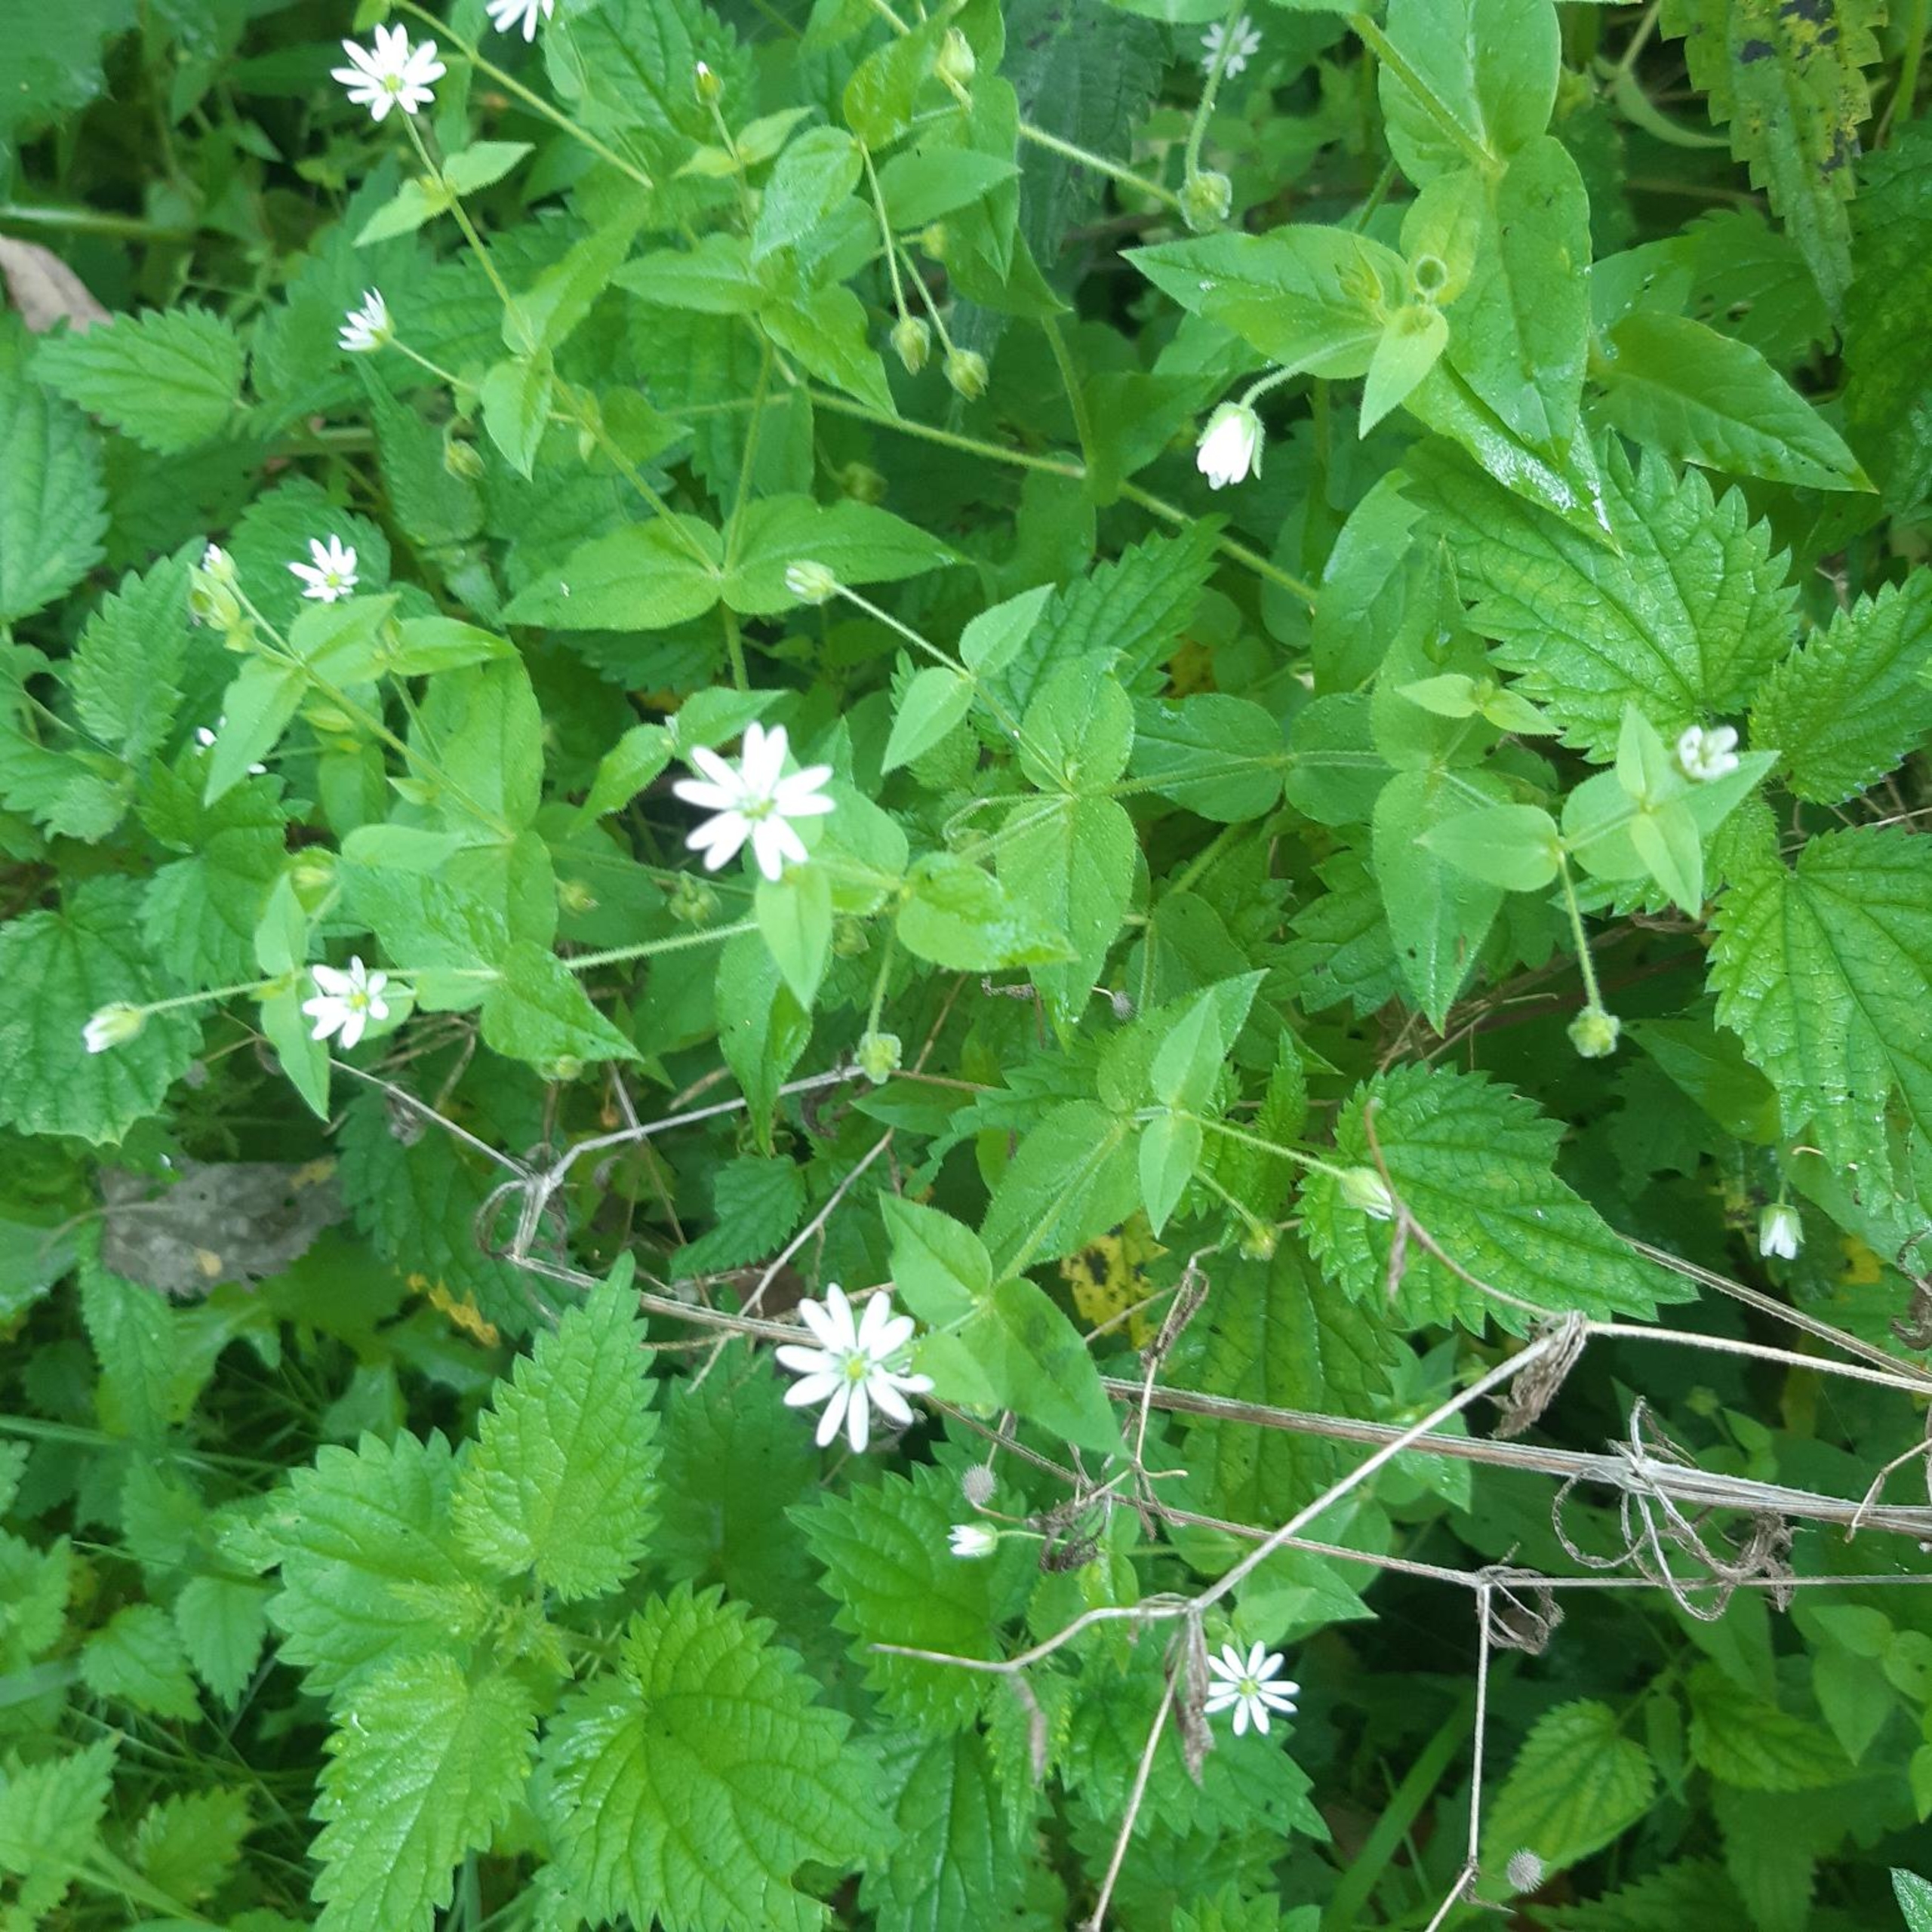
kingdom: Plantae
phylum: Tracheophyta
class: Magnoliopsida
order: Caryophyllales
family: Caryophyllaceae
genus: Stellaria
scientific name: Stellaria aquatica
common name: Kløvkrone
